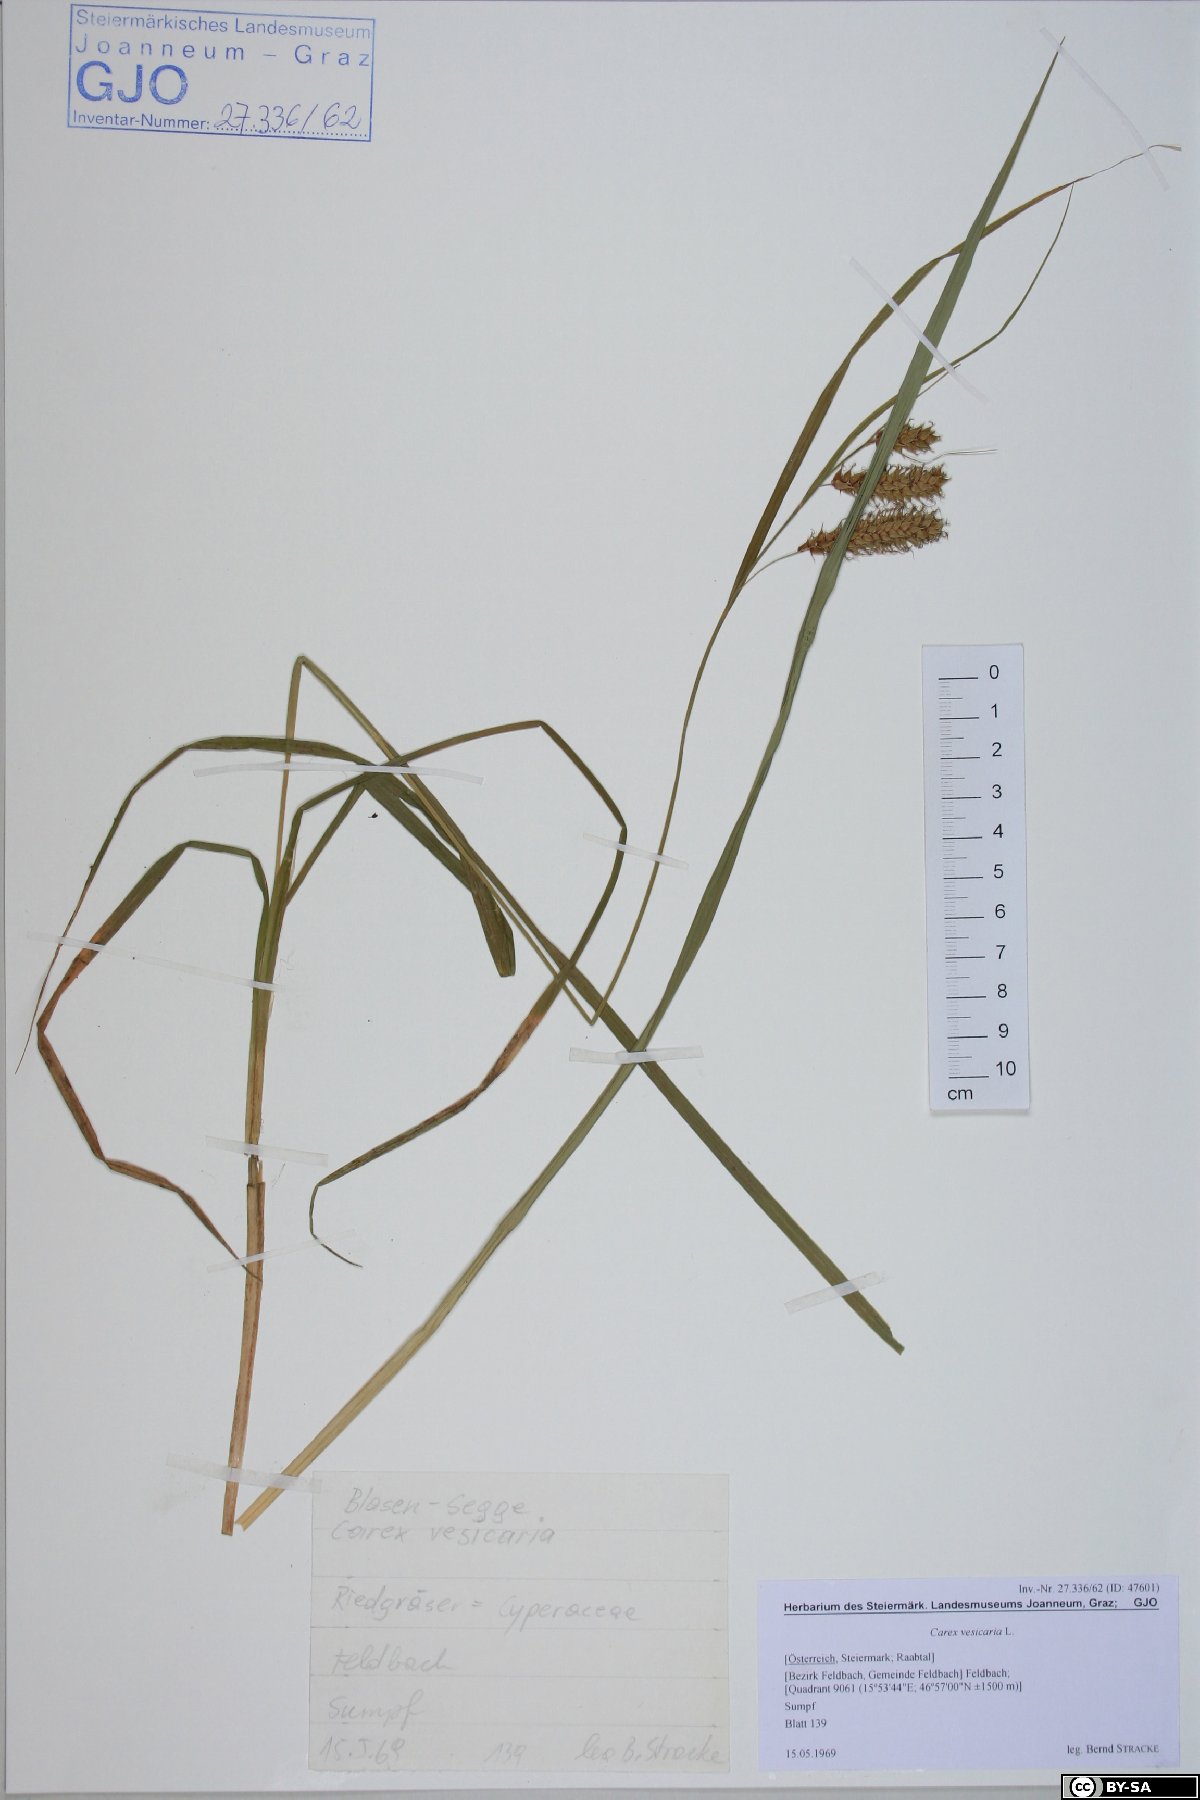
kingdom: Plantae
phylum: Tracheophyta
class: Liliopsida
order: Poales
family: Cyperaceae
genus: Carex
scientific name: Carex vesicaria
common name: Bladder-sedge
